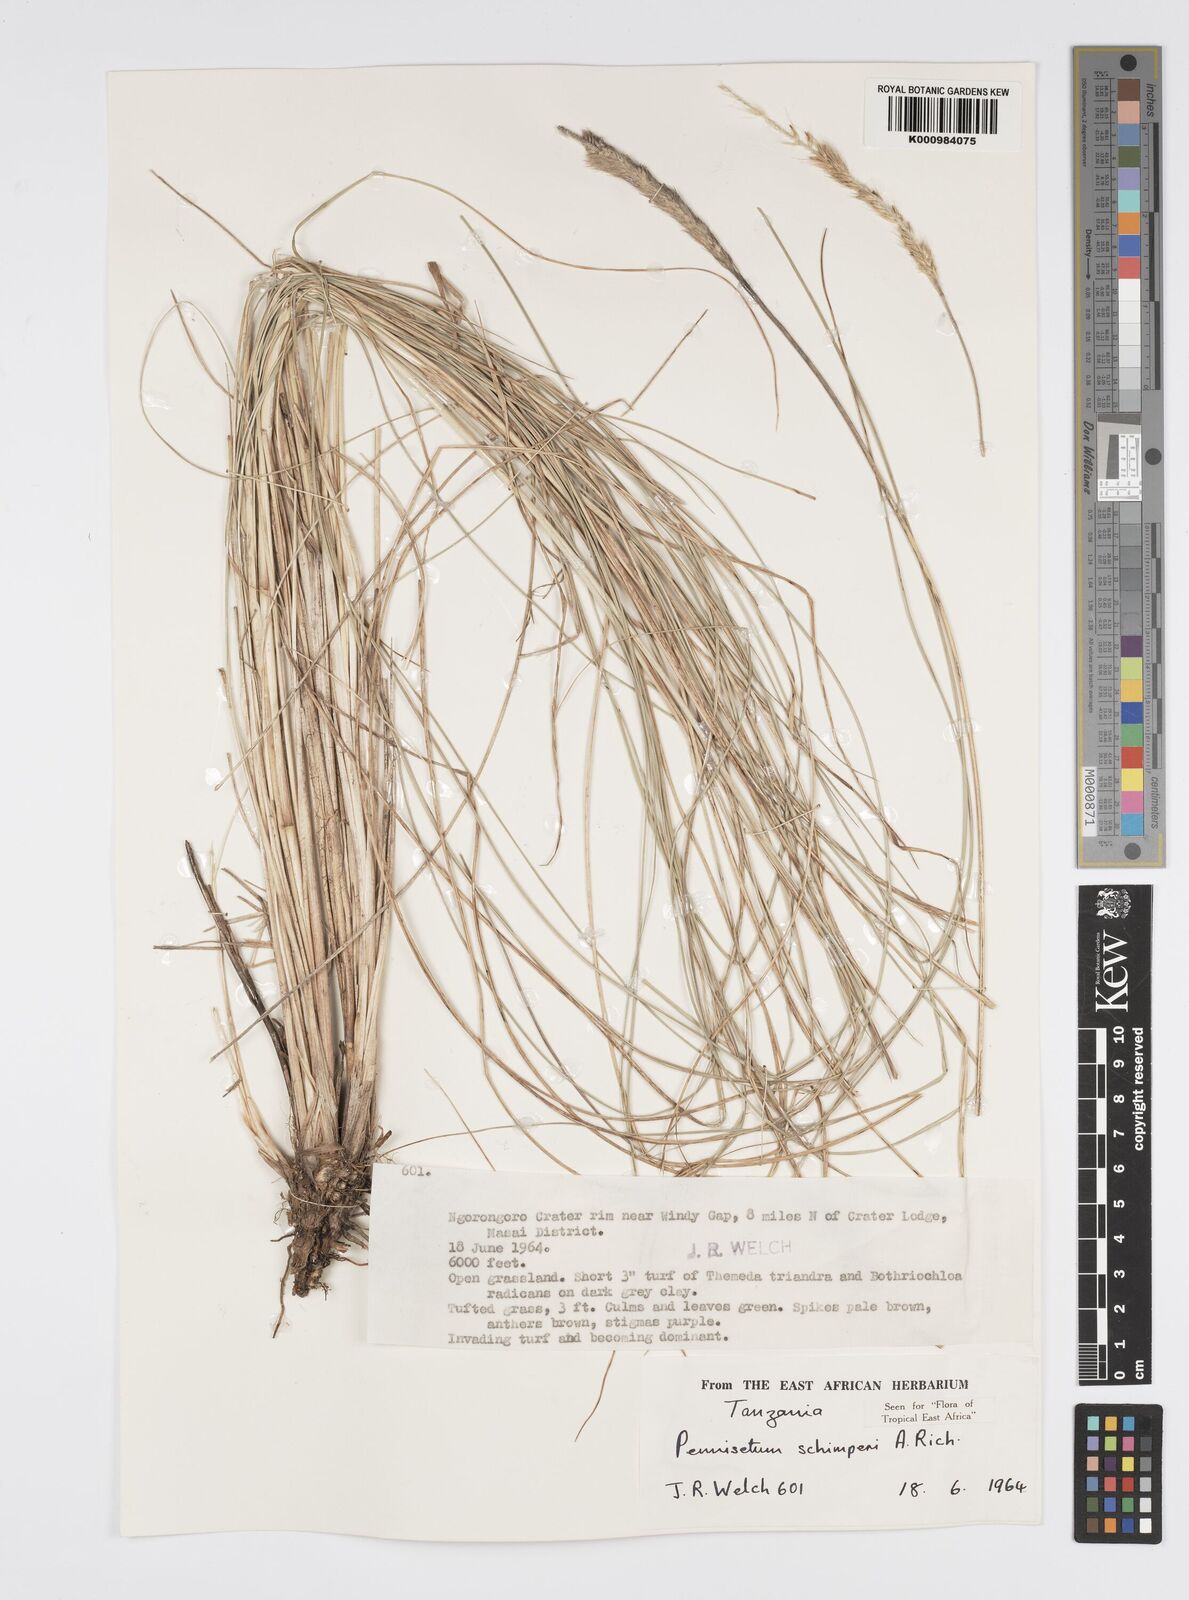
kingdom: Plantae
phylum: Tracheophyta
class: Liliopsida
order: Poales
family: Poaceae
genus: Cenchrus
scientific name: Cenchrus sphacelatus
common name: Bulgras
